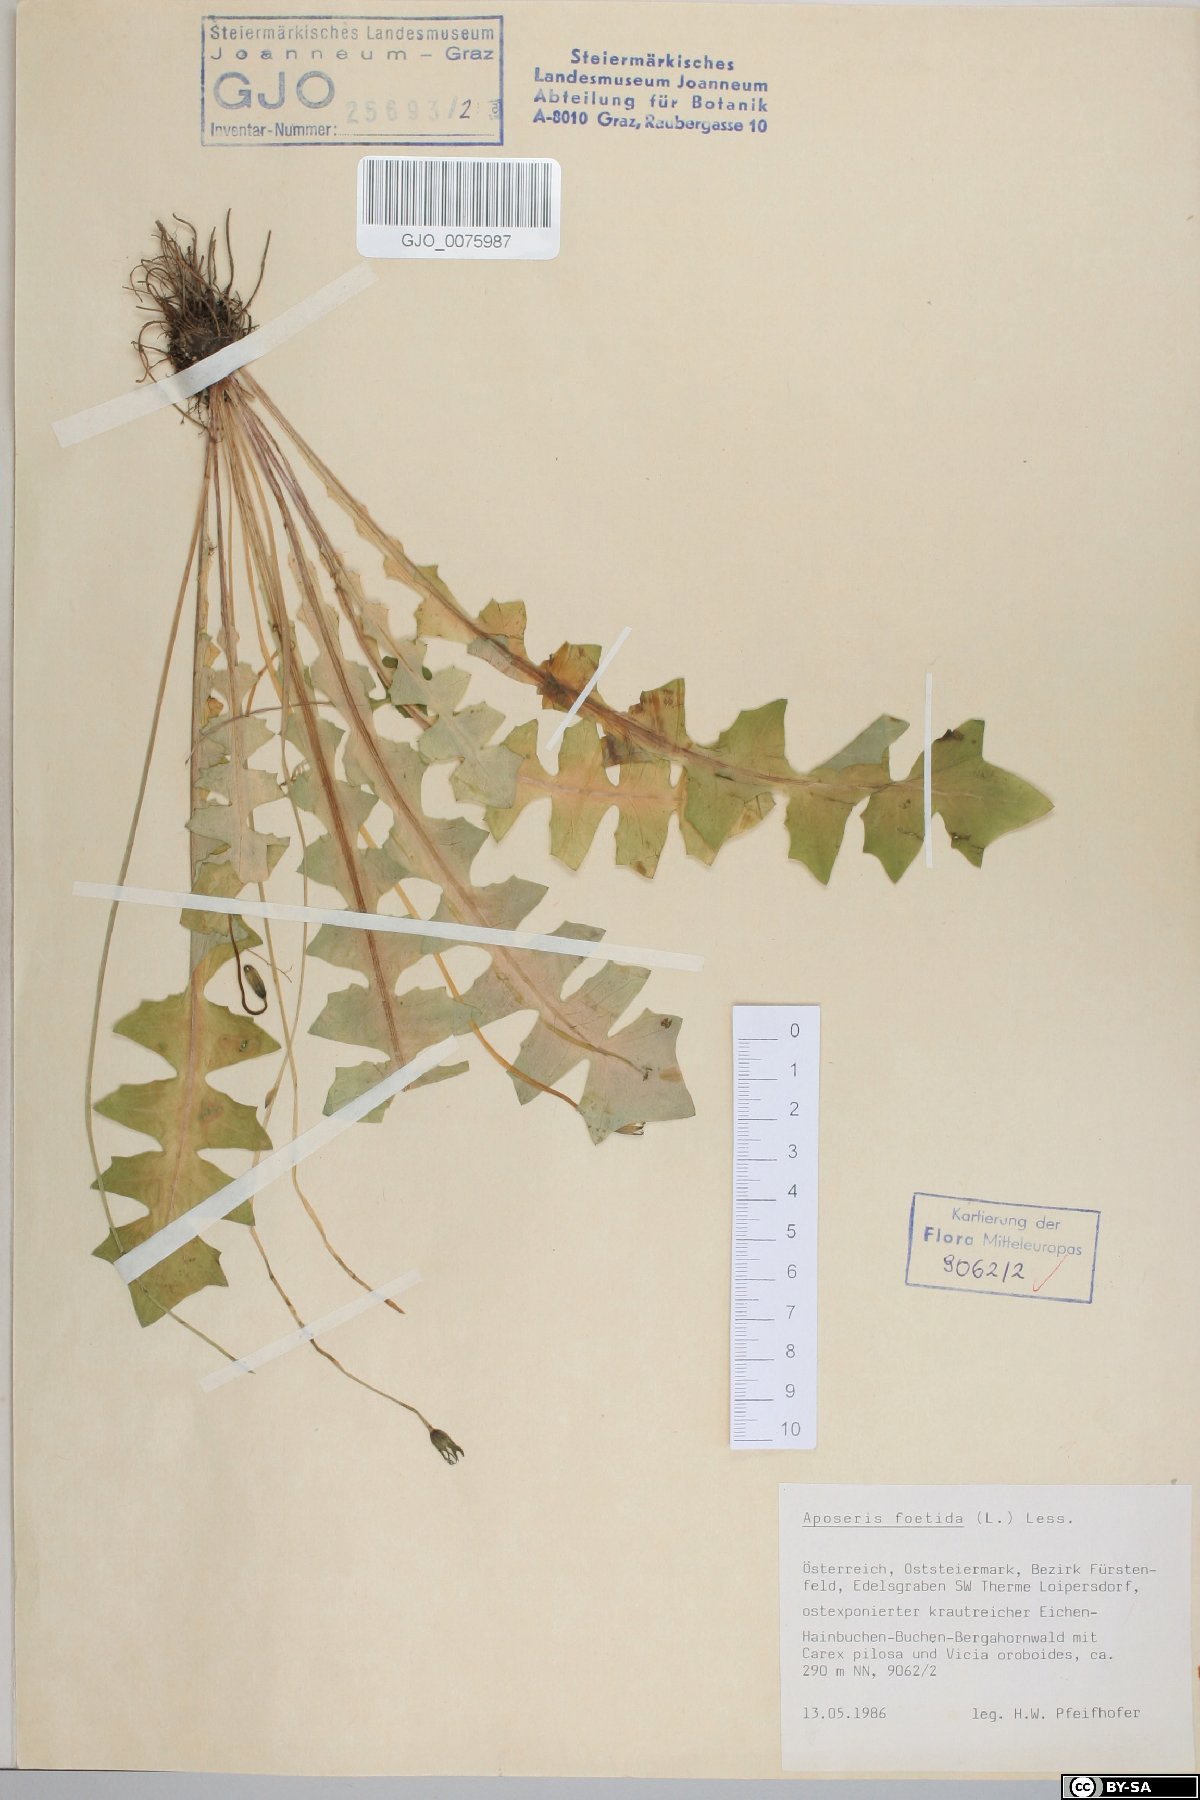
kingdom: Plantae
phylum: Tracheophyta
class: Magnoliopsida
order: Asterales
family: Asteraceae
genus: Aposeris
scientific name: Aposeris foetida
